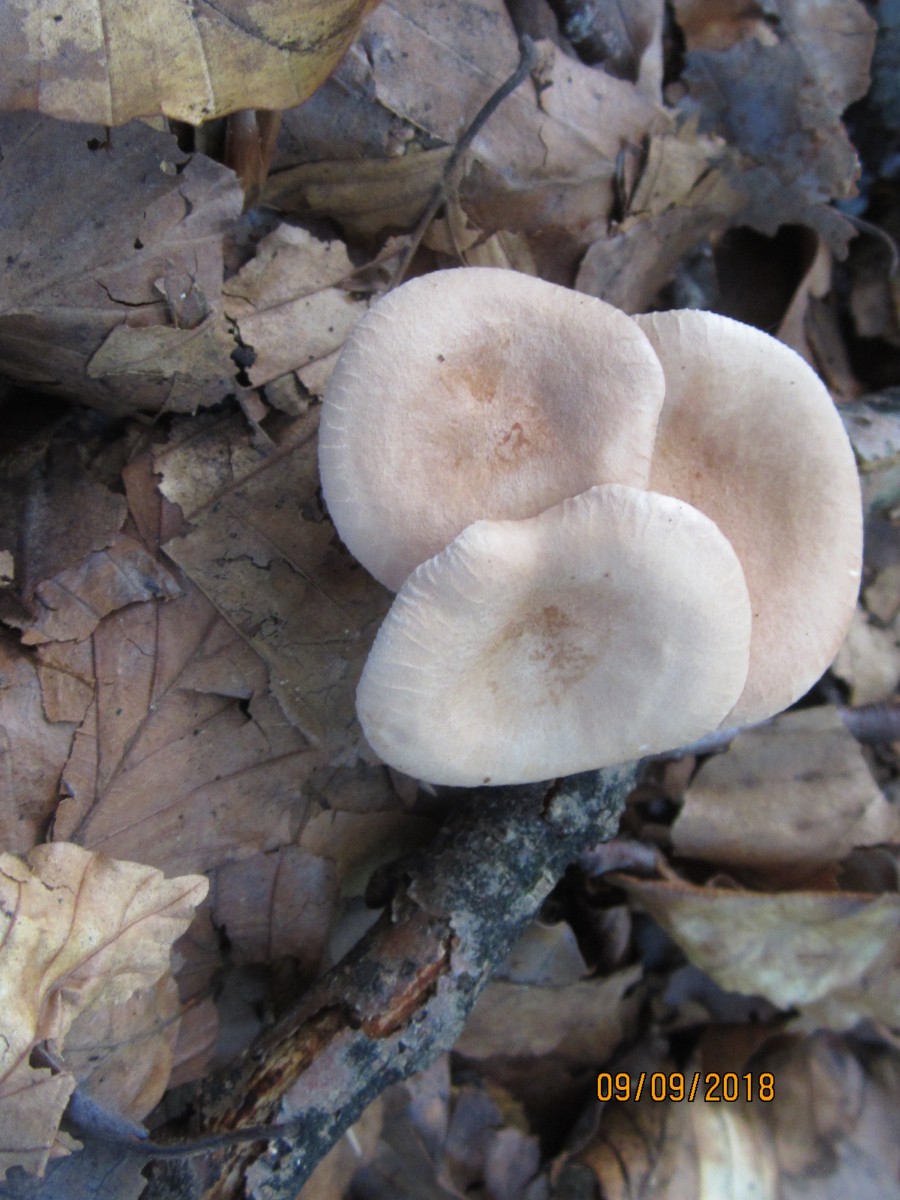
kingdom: Fungi
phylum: Basidiomycota
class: Agaricomycetes
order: Agaricales
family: Tricholomataceae
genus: Infundibulicybe
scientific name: Infundibulicybe gibba
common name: almindelig tragthat
